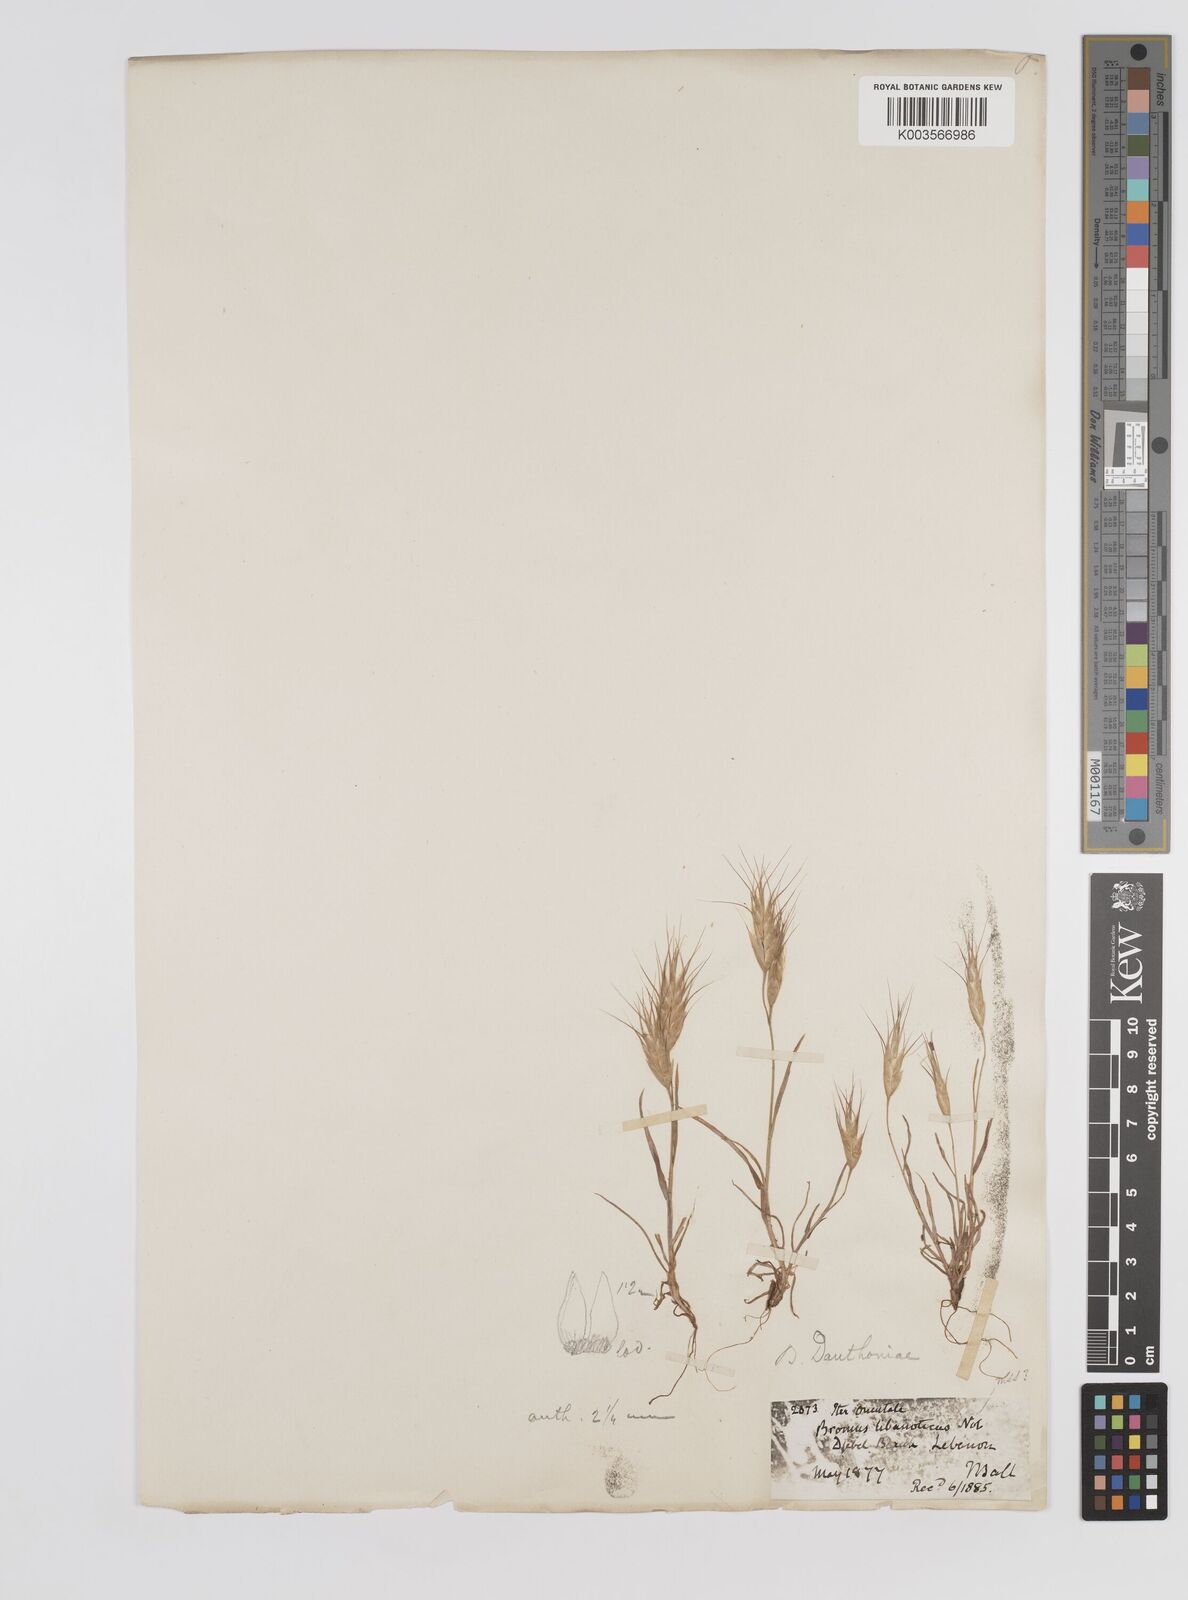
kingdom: Plantae
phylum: Tracheophyta
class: Liliopsida
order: Poales
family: Poaceae
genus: Bromus
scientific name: Bromus danthoniae
